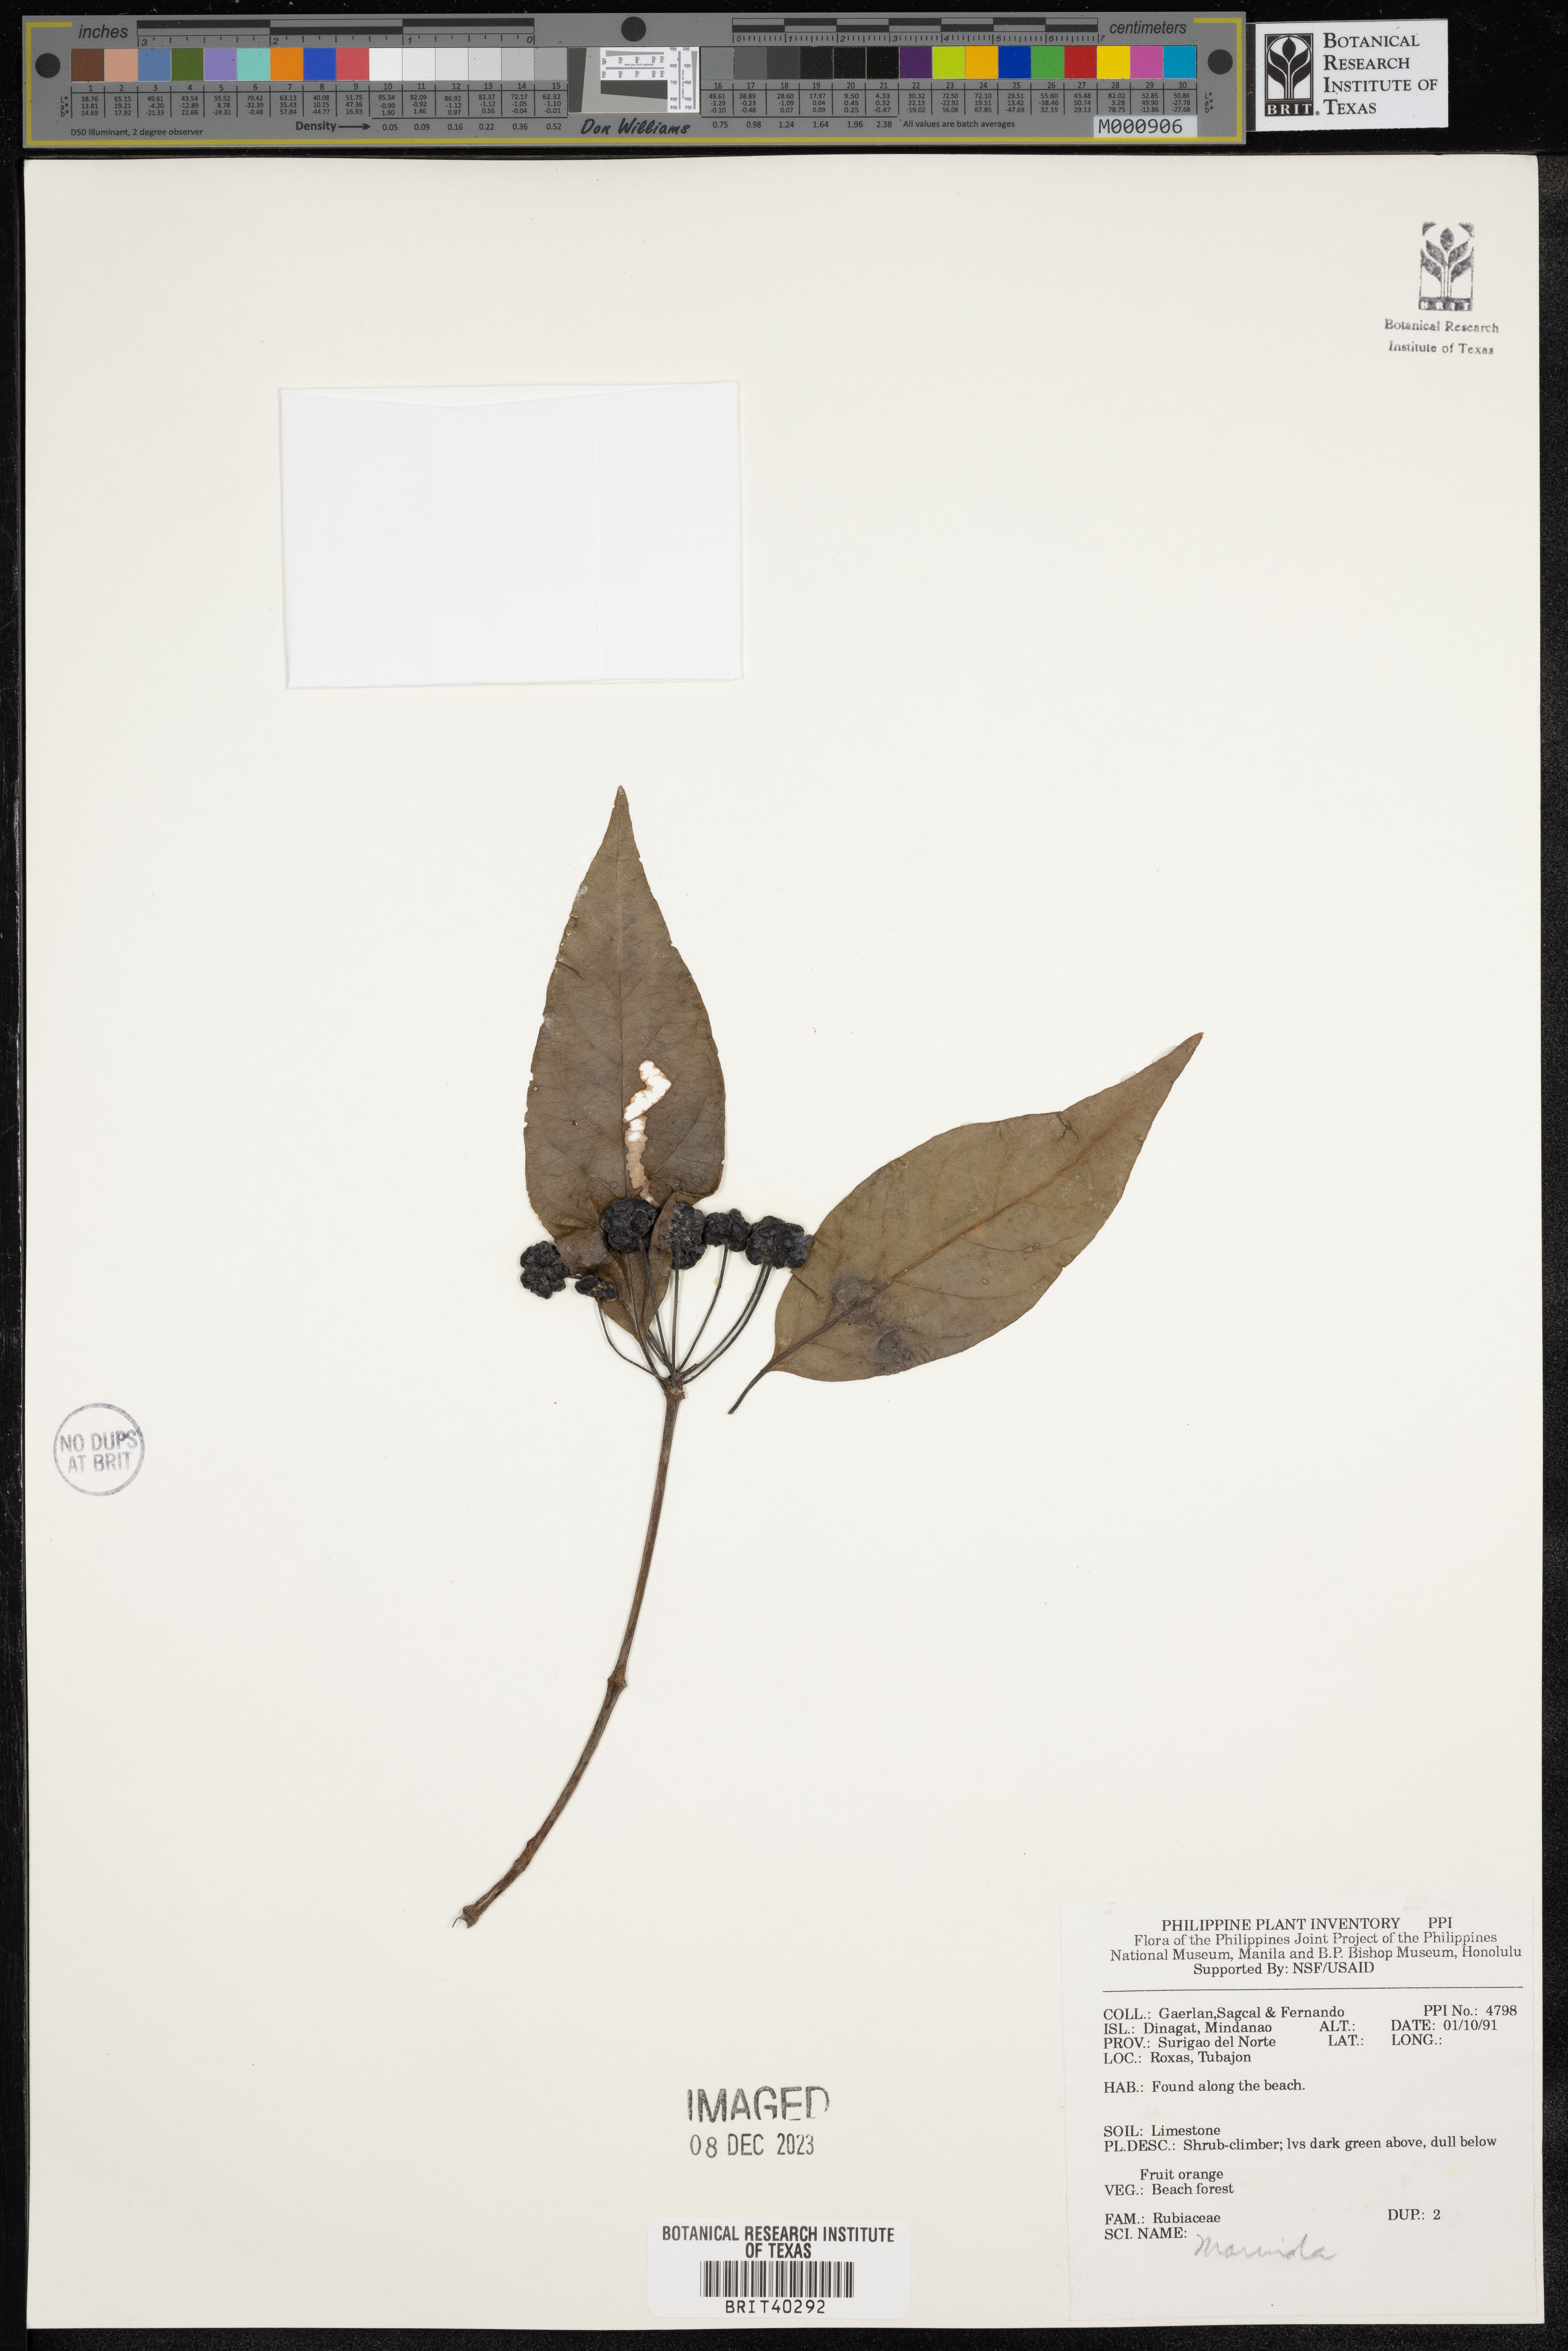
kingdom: Plantae
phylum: Tracheophyta
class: Magnoliopsida
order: Gentianales
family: Rubiaceae
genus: Morinda
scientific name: Morinda
